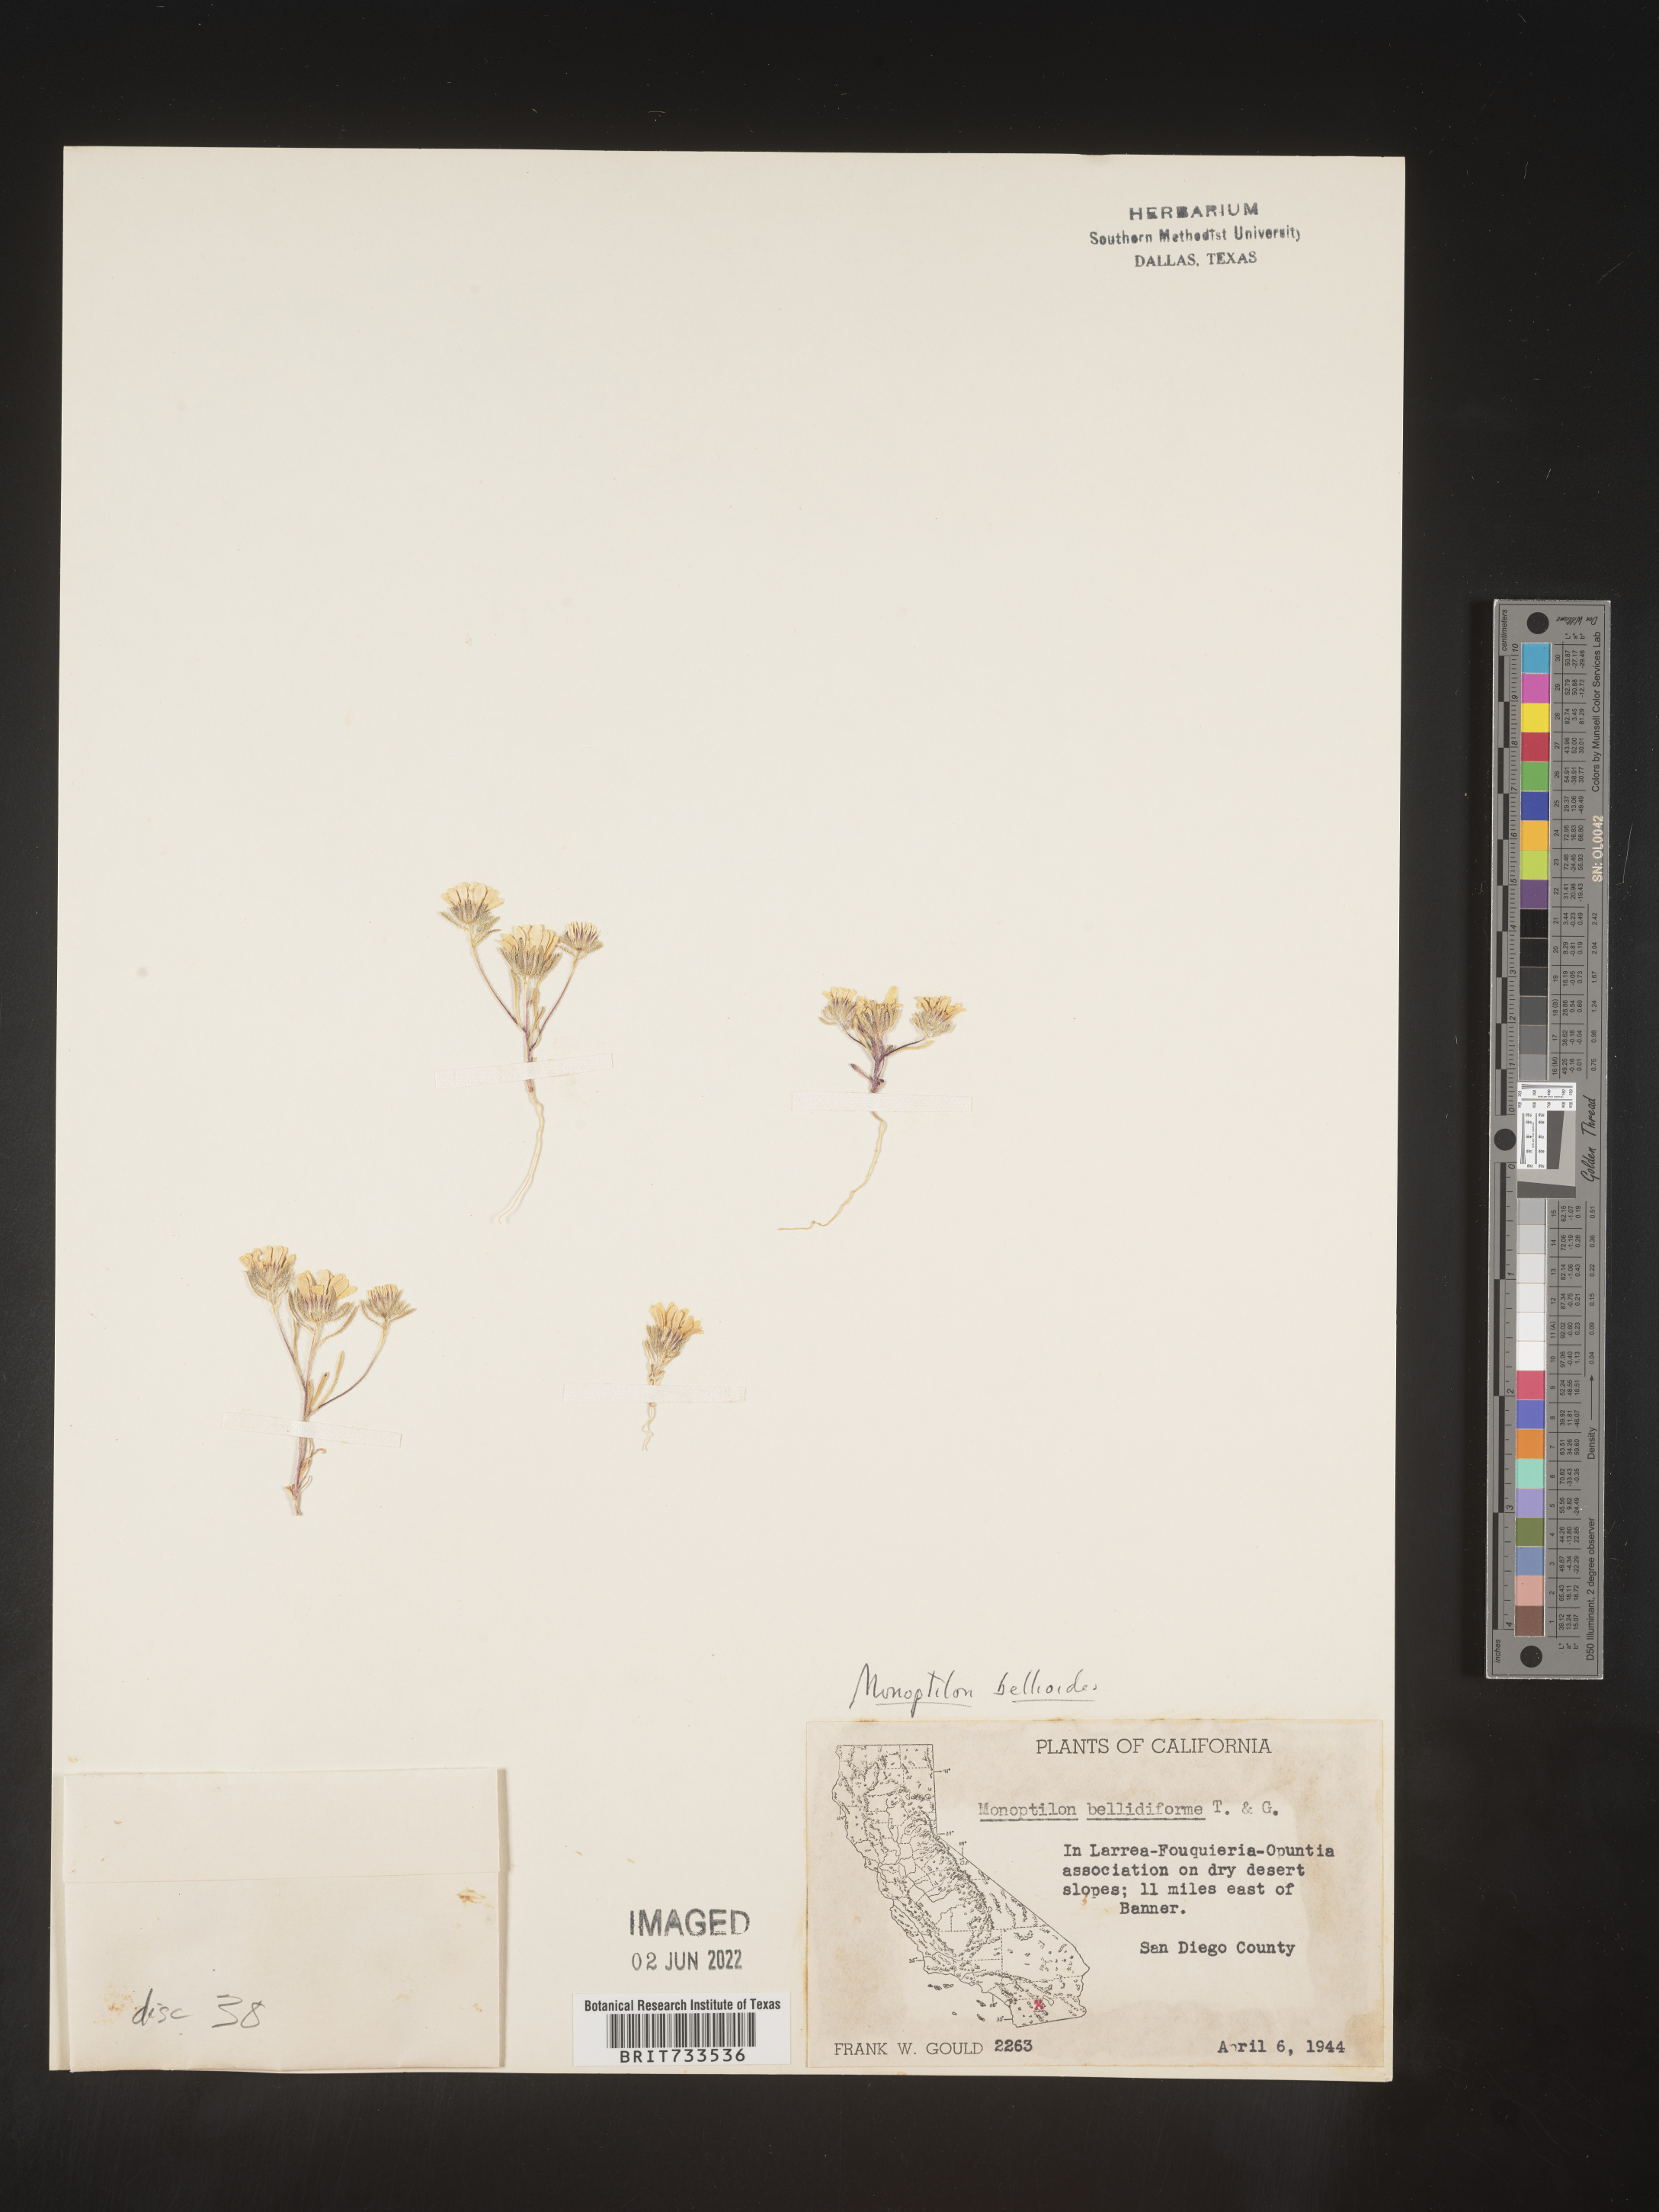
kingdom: Plantae
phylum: Tracheophyta
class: Magnoliopsida
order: Asterales
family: Asteraceae
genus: Monoptilon
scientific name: Monoptilon
